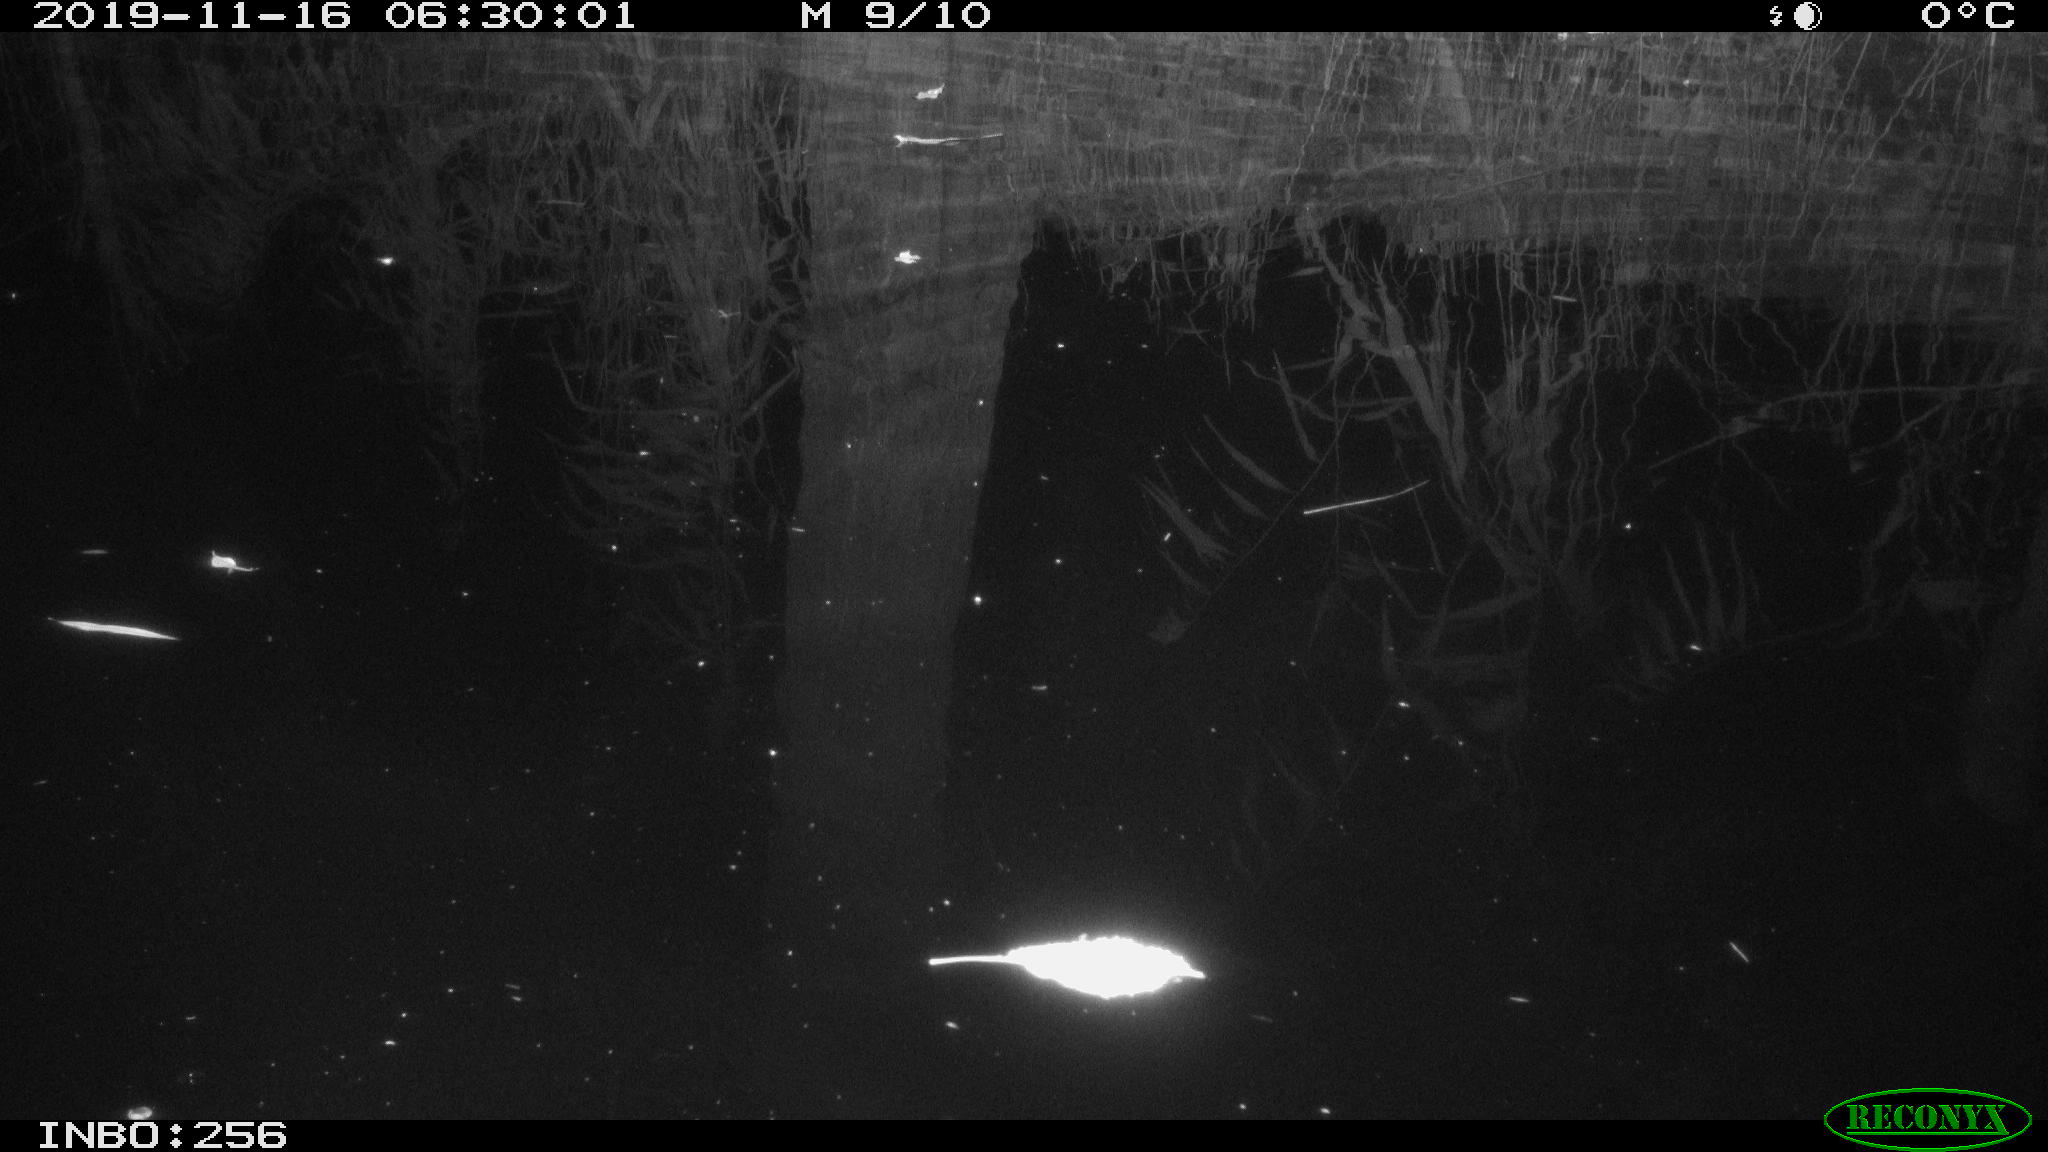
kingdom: Animalia
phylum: Chordata
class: Mammalia
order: Rodentia
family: Muridae
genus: Rattus
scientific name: Rattus norvegicus
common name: Brown rat
